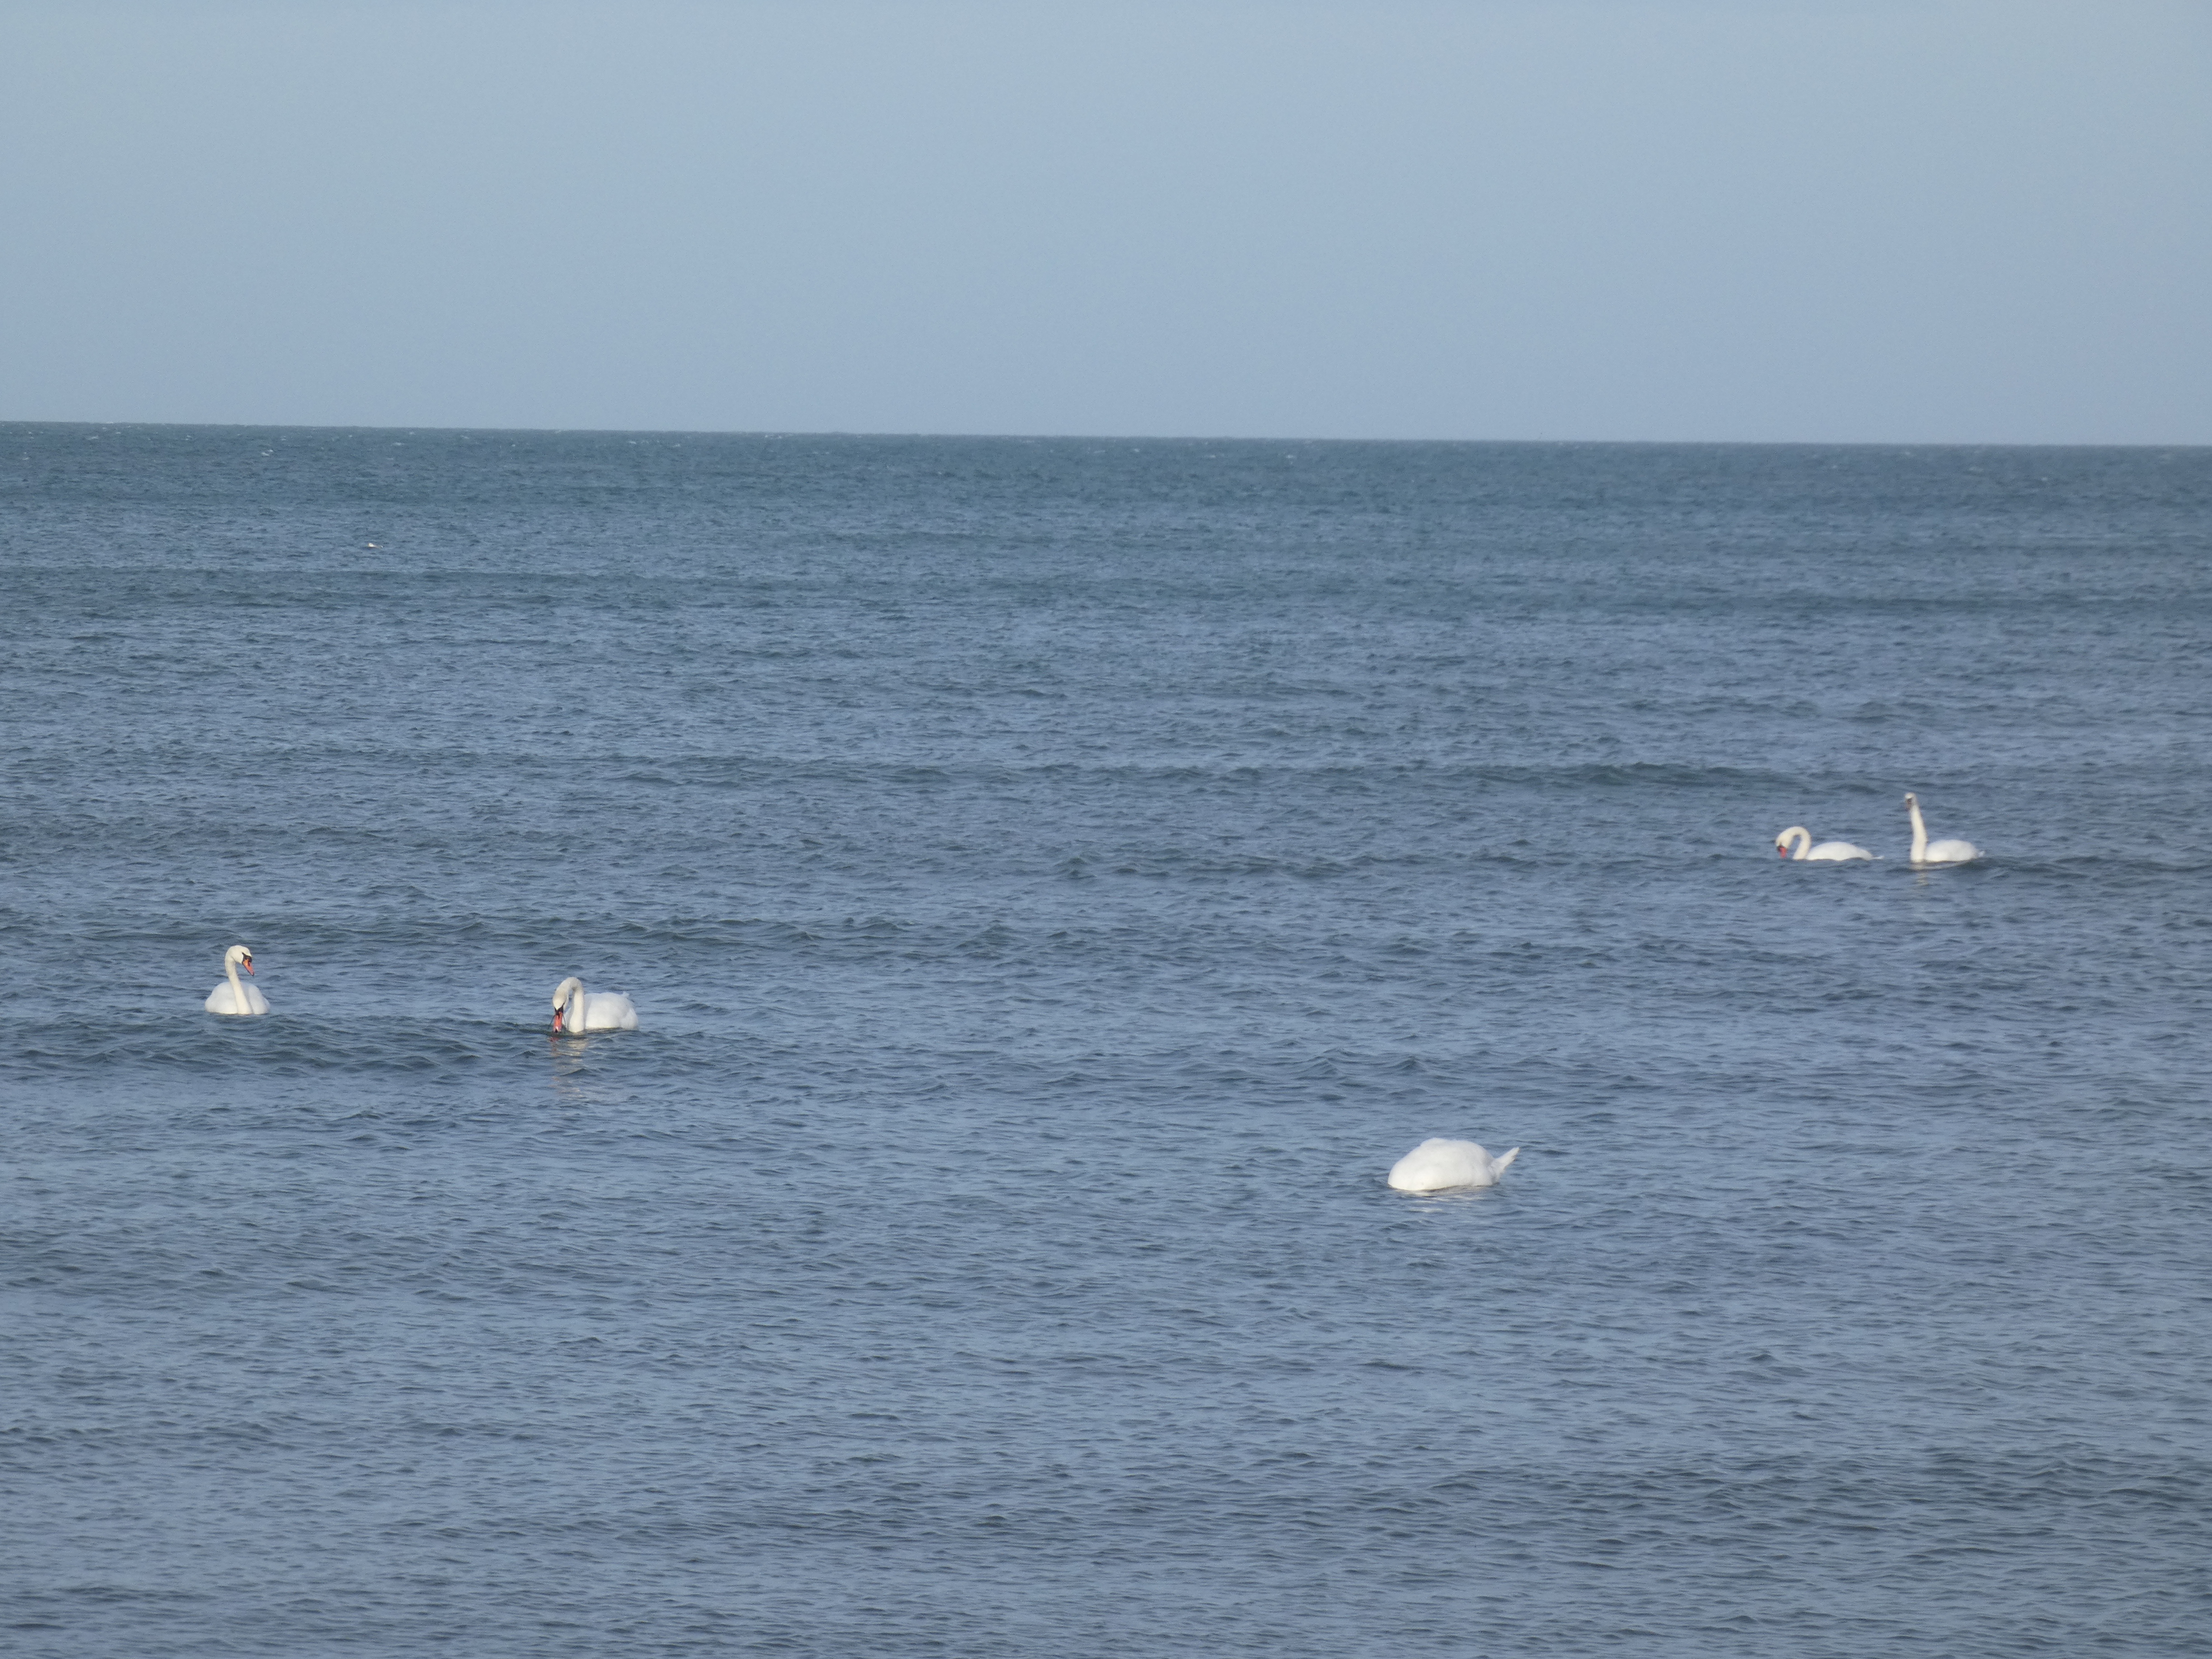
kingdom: Animalia
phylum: Chordata
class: Aves
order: Anseriformes
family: Anatidae
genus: Cygnus
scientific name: Cygnus olor
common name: Knopsvane
